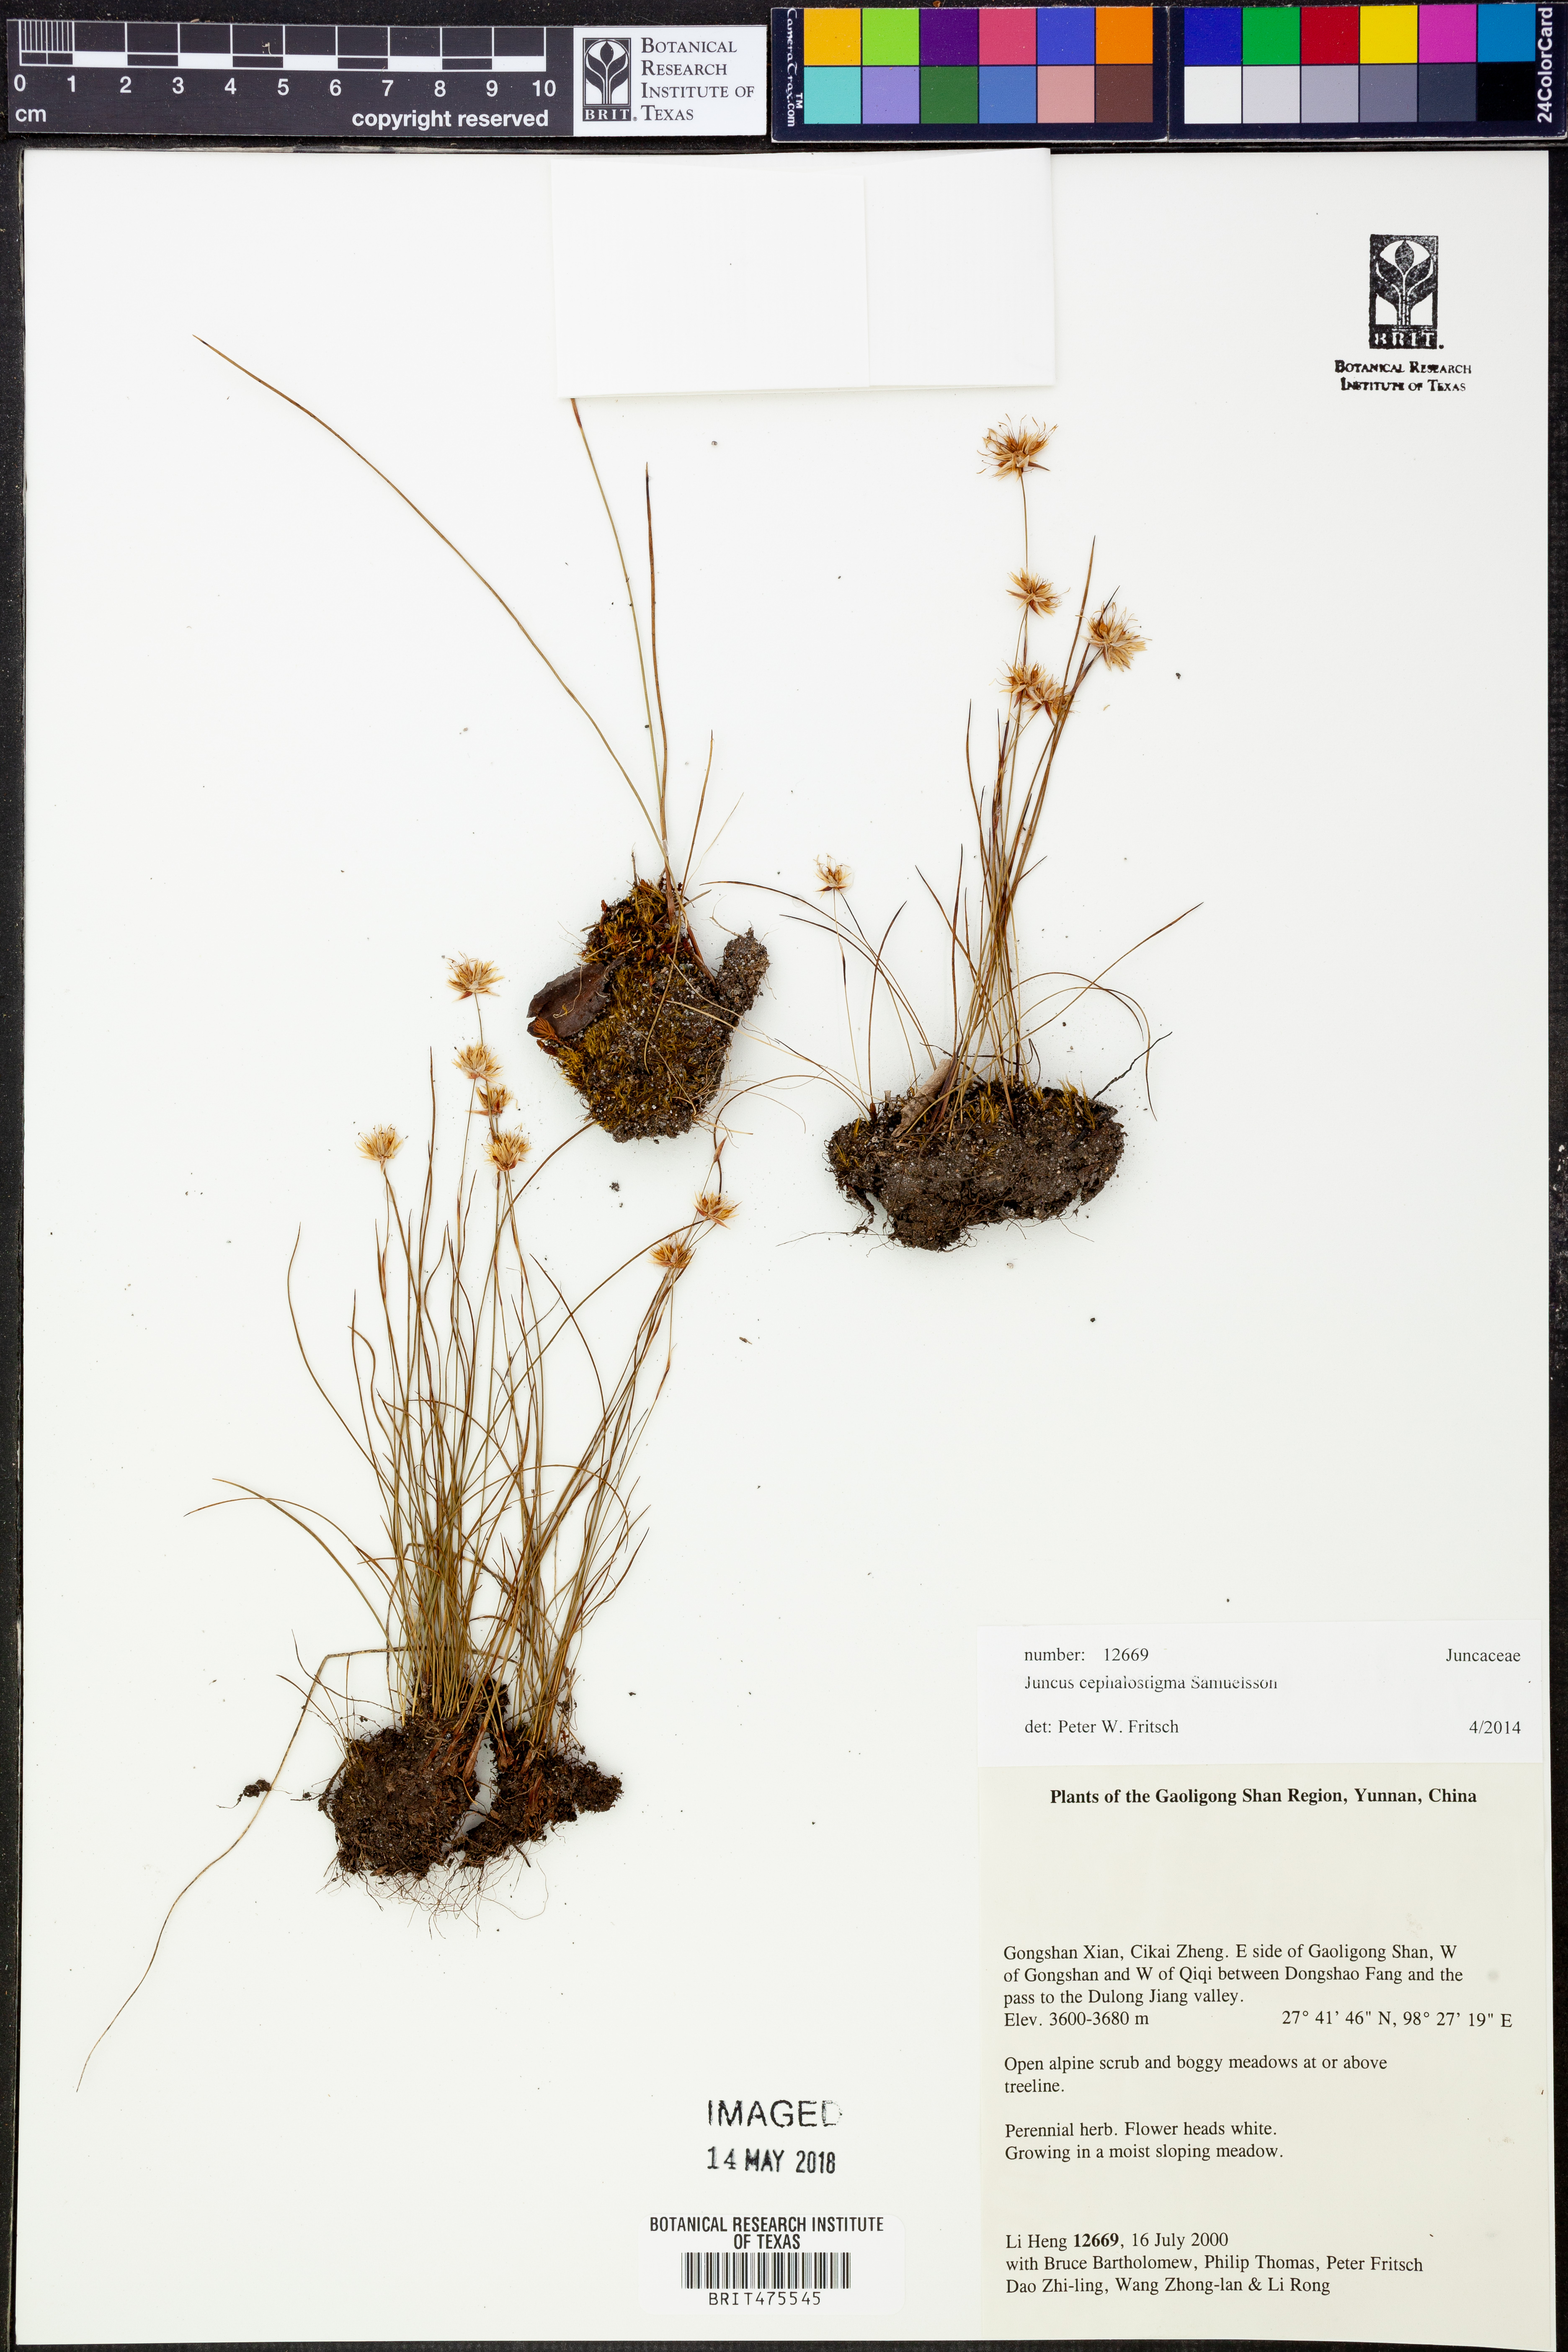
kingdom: Plantae
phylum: Tracheophyta
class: Liliopsida
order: Poales
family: Juncaceae
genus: Juncus
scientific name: Juncus cephalostigma
